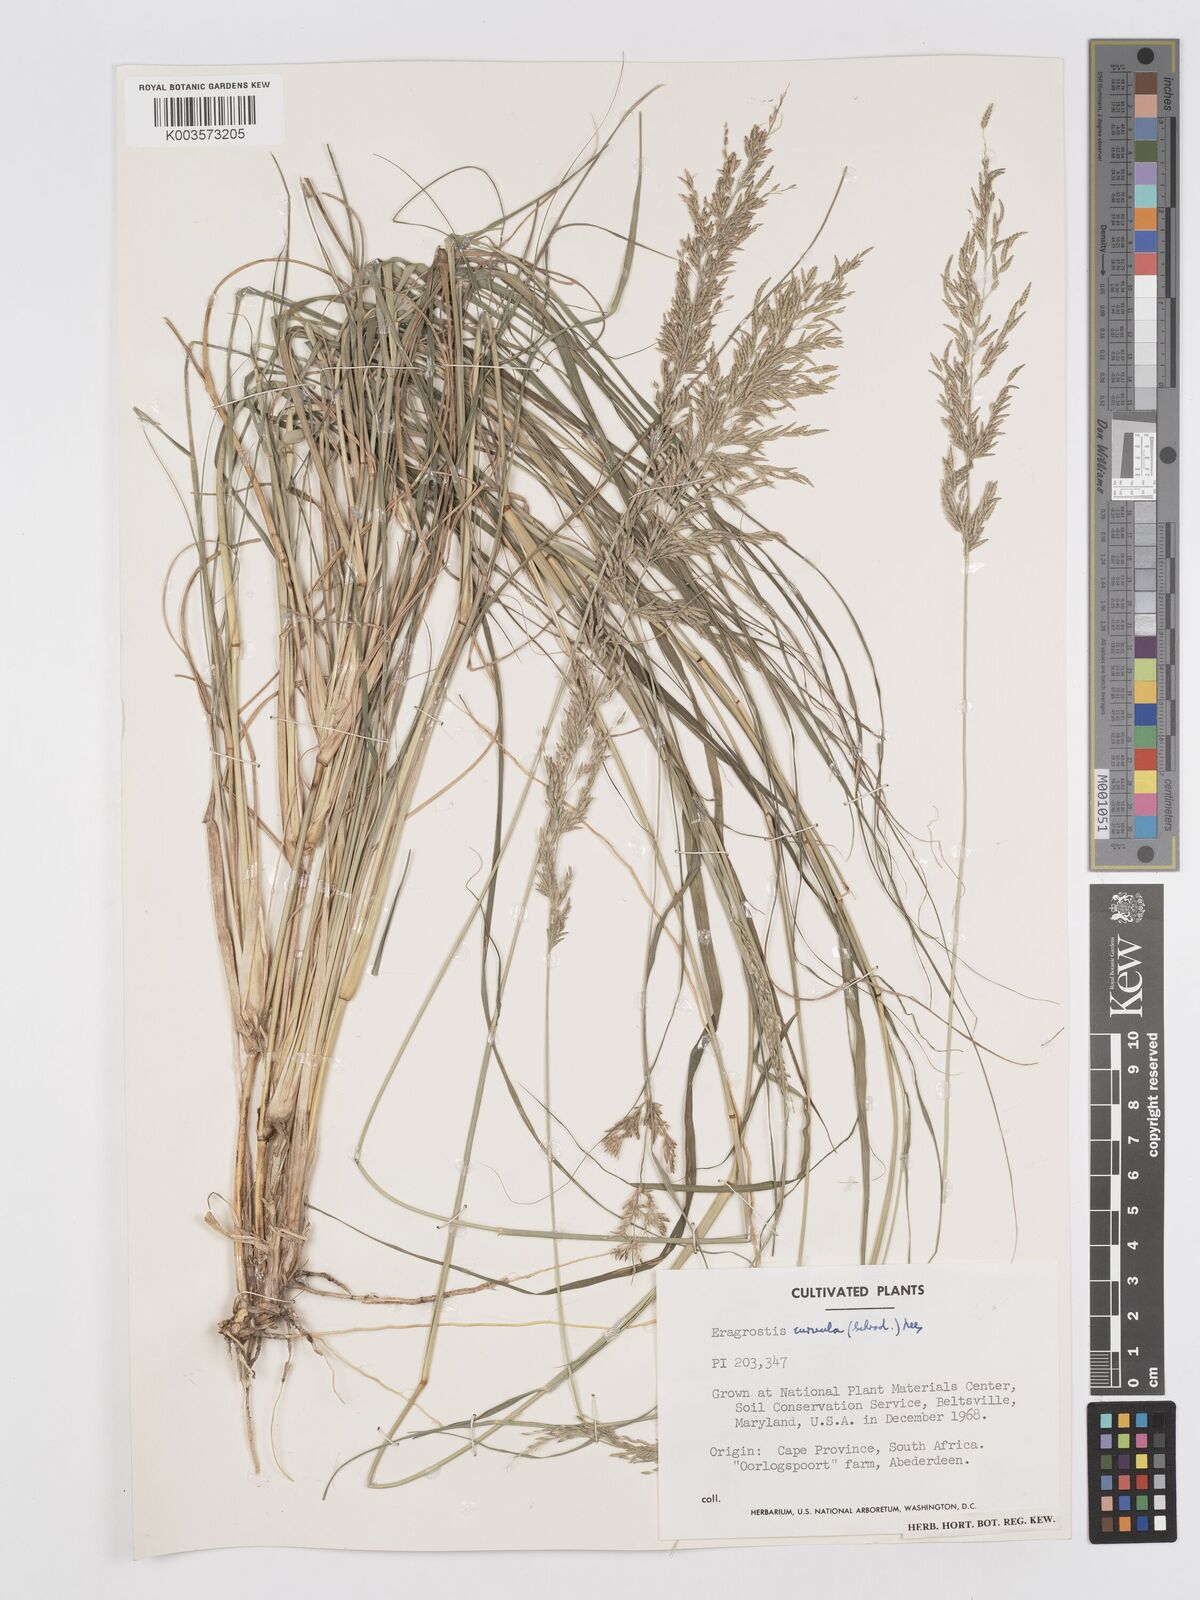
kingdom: Plantae
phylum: Tracheophyta
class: Liliopsida
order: Poales
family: Poaceae
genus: Eragrostis
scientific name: Eragrostis curvula
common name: African love-grass
